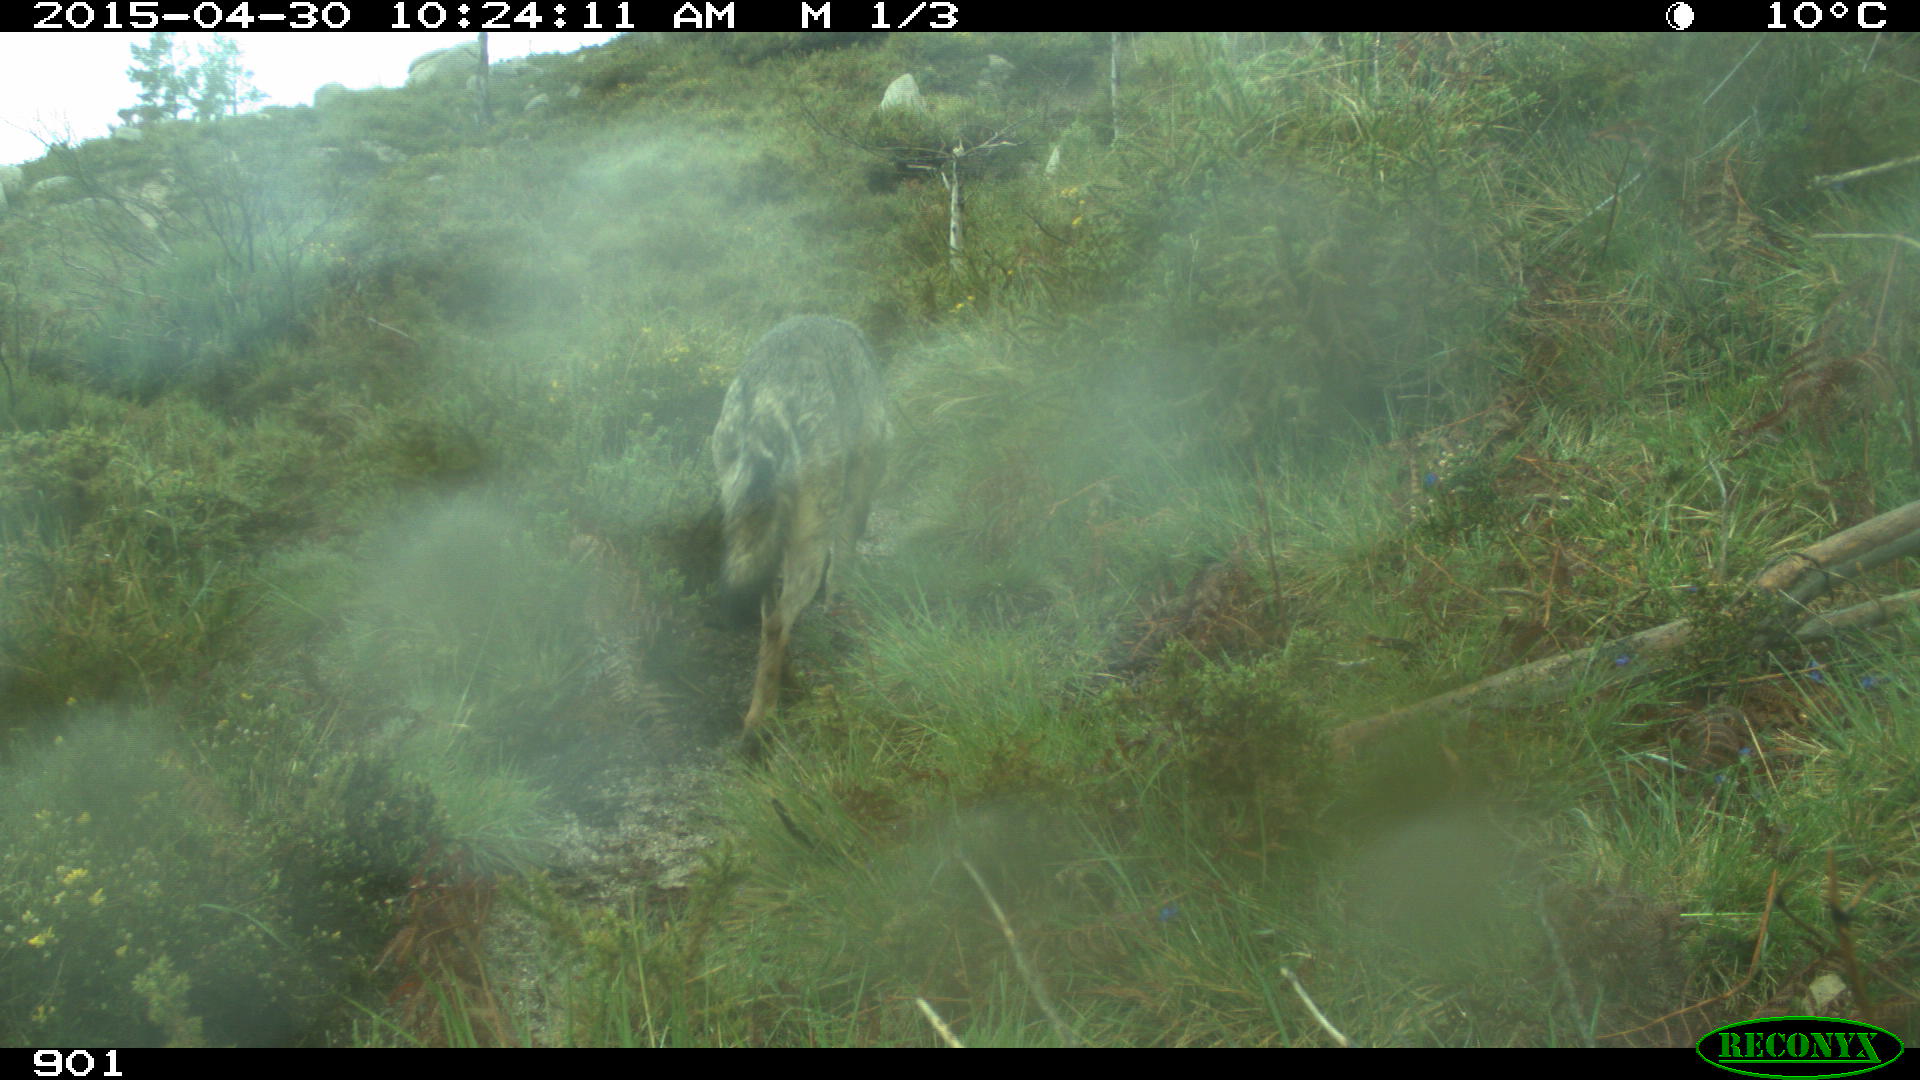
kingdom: Animalia
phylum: Chordata
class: Mammalia
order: Carnivora
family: Canidae
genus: Canis
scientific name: Canis lupus
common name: Gray wolf
